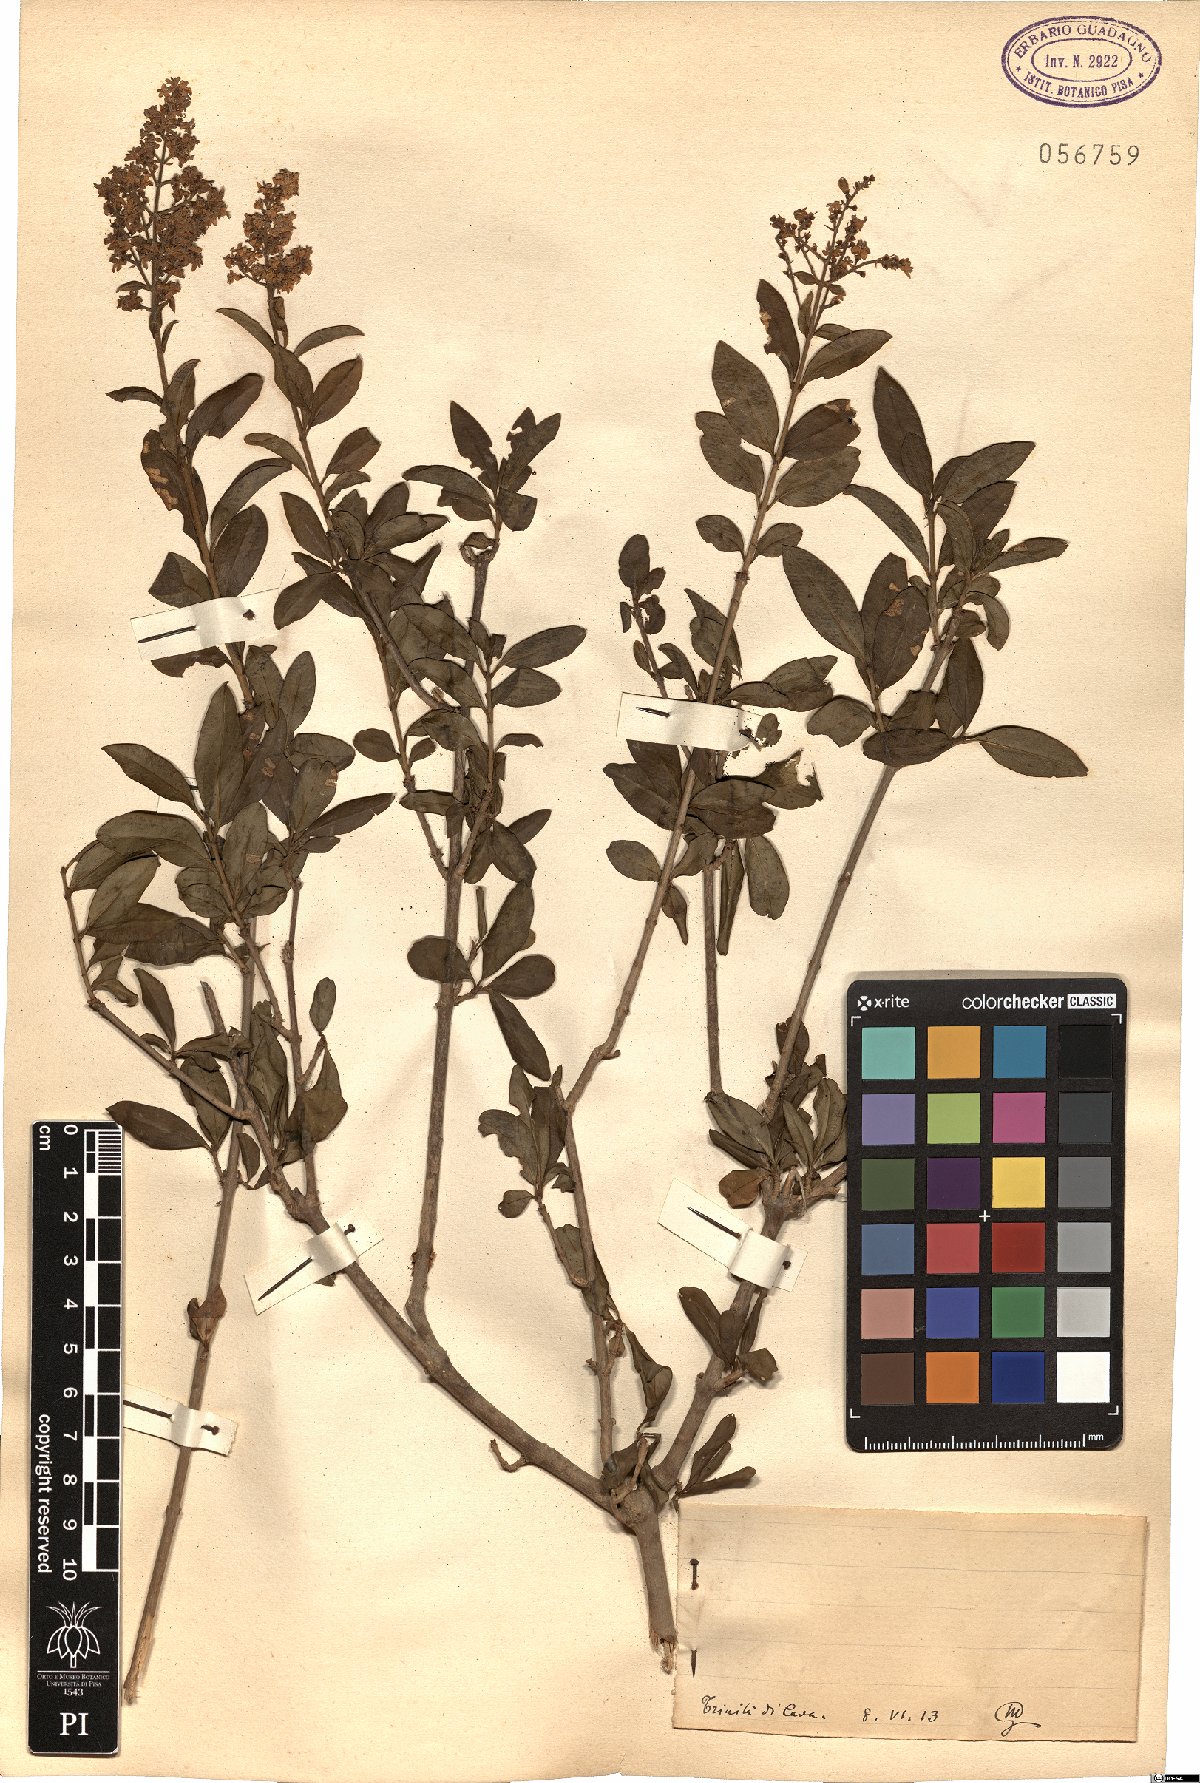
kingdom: Plantae
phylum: Tracheophyta
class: Magnoliopsida
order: Lamiales
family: Oleaceae
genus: Ligustrum
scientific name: Ligustrum
